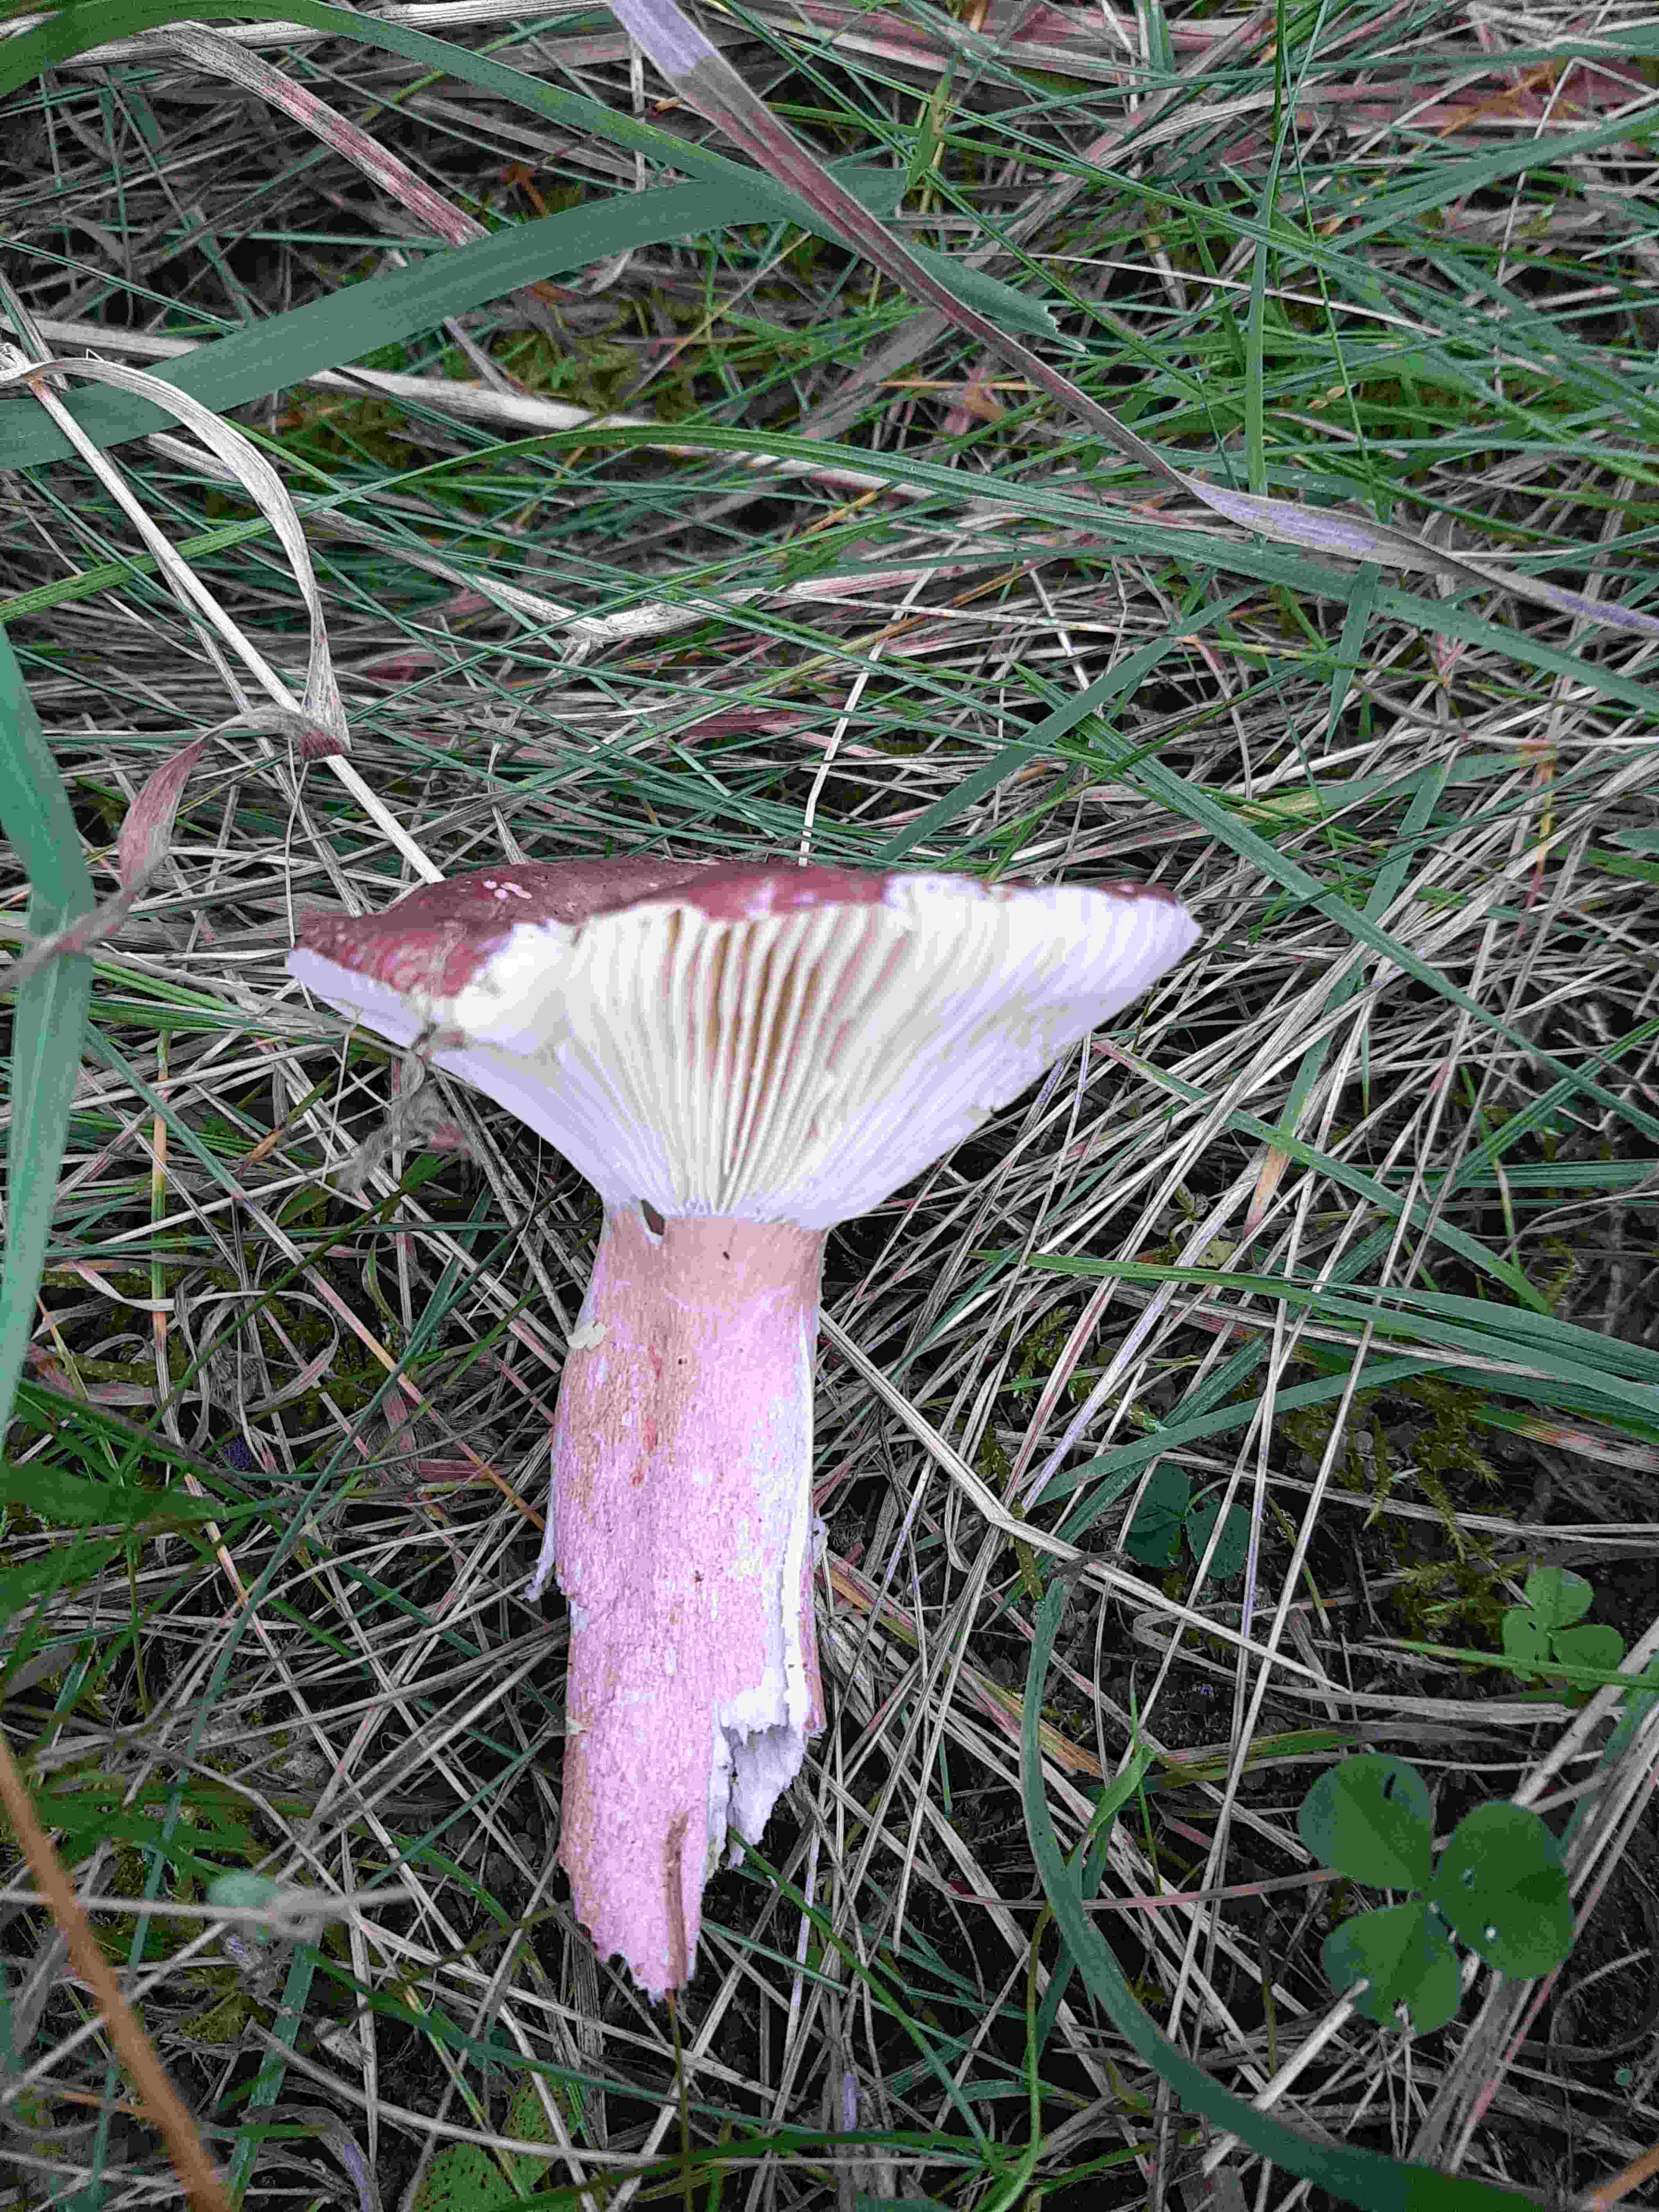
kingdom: Fungi
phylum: Basidiomycota
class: Agaricomycetes
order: Russulales
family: Russulaceae
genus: Russula
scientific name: Russula queletii
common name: Quélets skørhat
